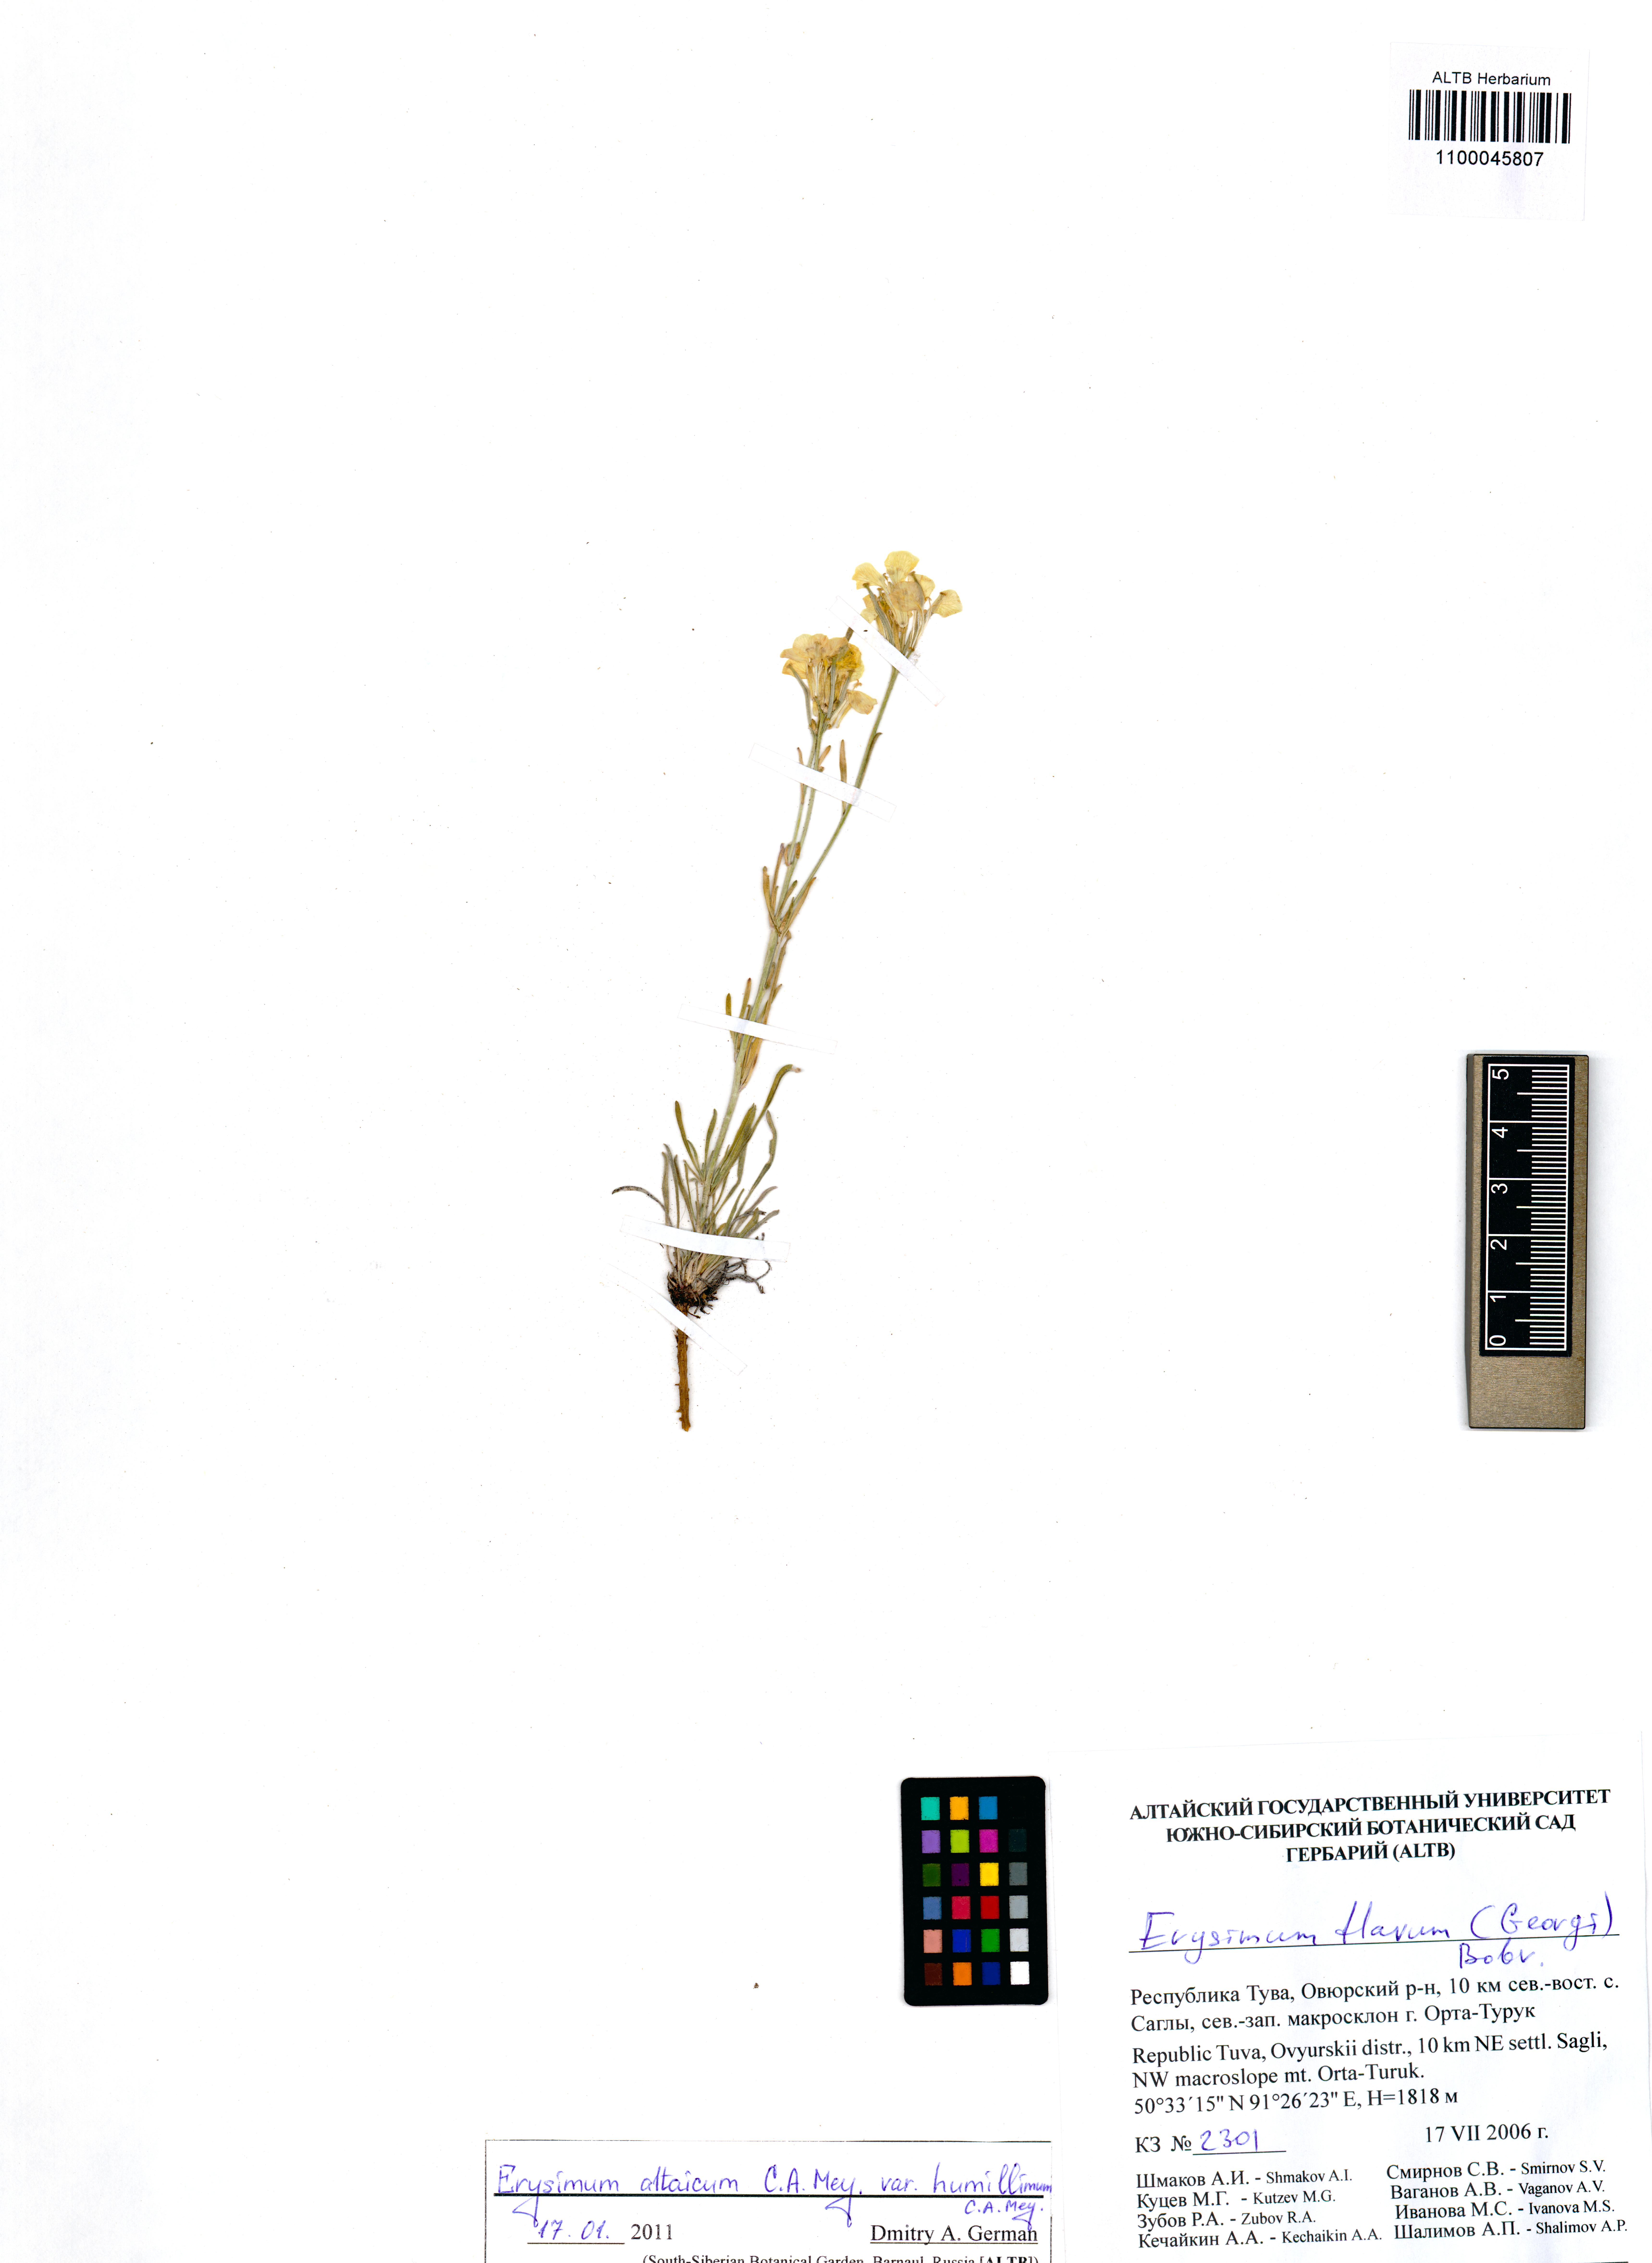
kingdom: Plantae
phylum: Tracheophyta
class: Magnoliopsida
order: Brassicales
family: Brassicaceae
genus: Erysimum
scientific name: Erysimum altaicum
